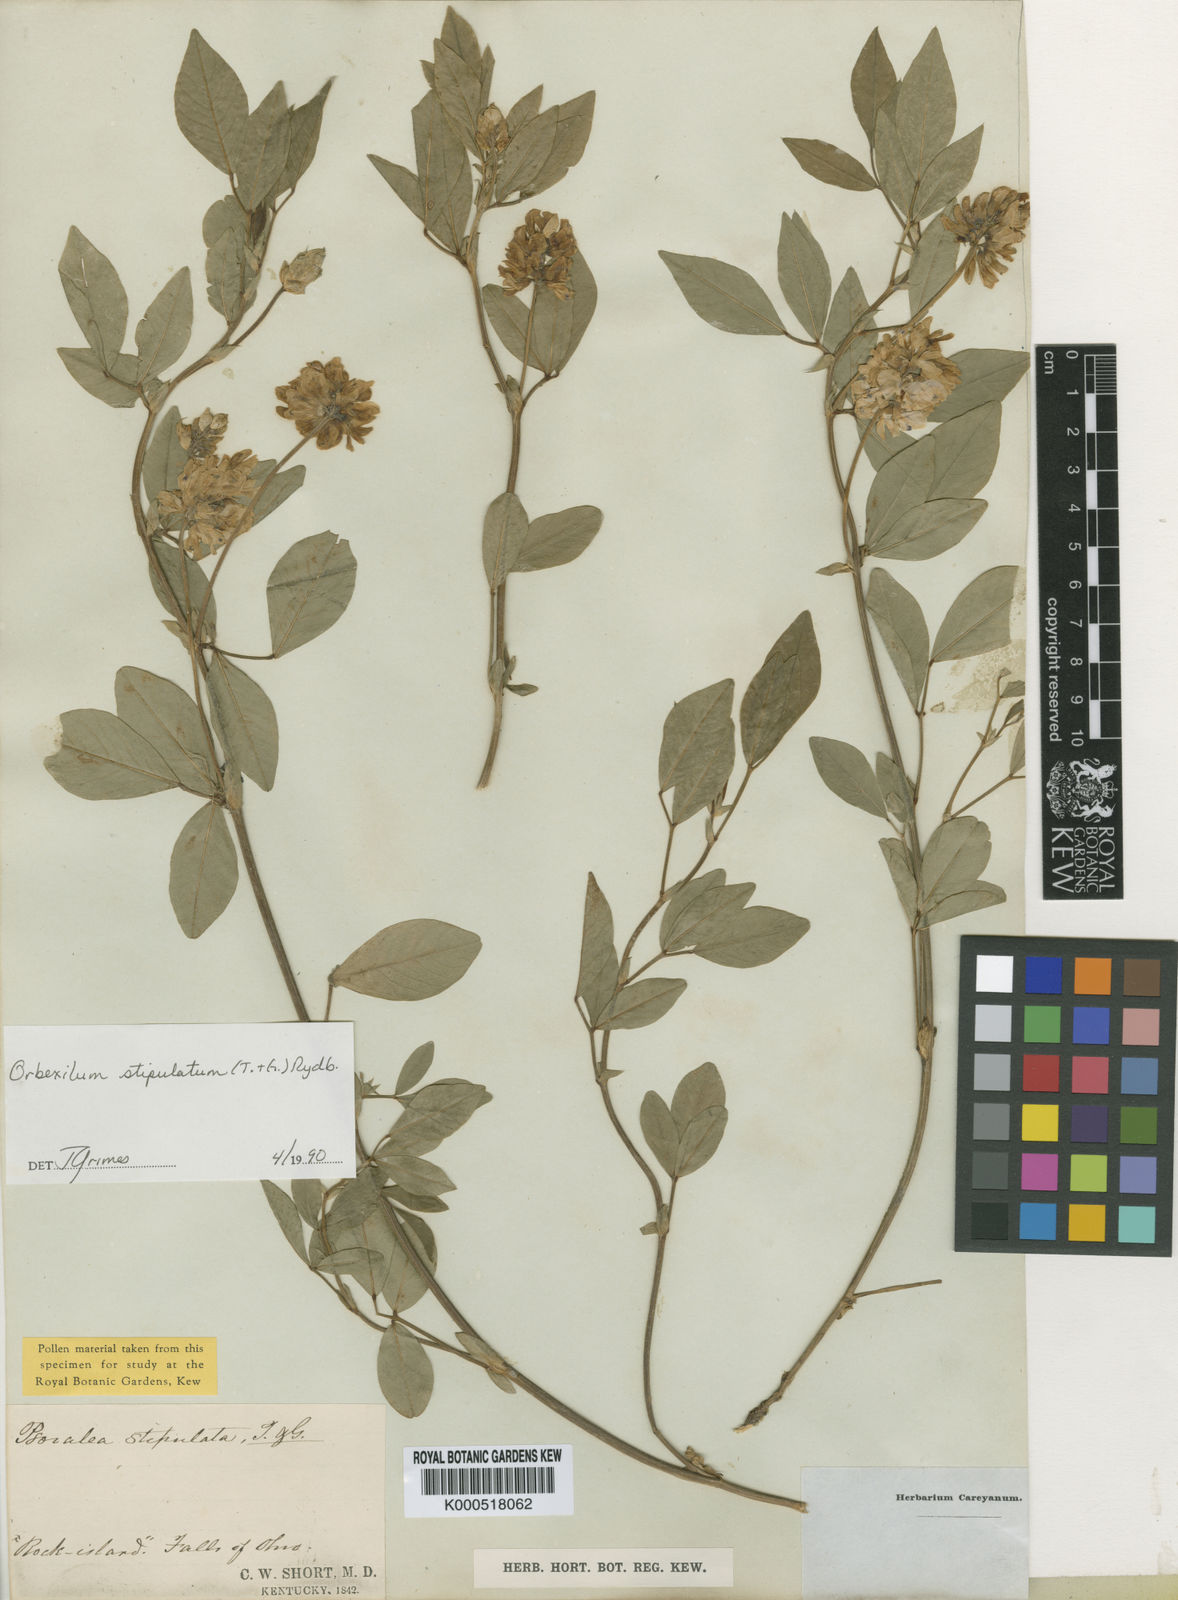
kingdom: Plantae
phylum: Tracheophyta
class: Magnoliopsida
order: Fabales
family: Fabaceae
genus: Orbexilum
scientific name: Orbexilum stipulatum
